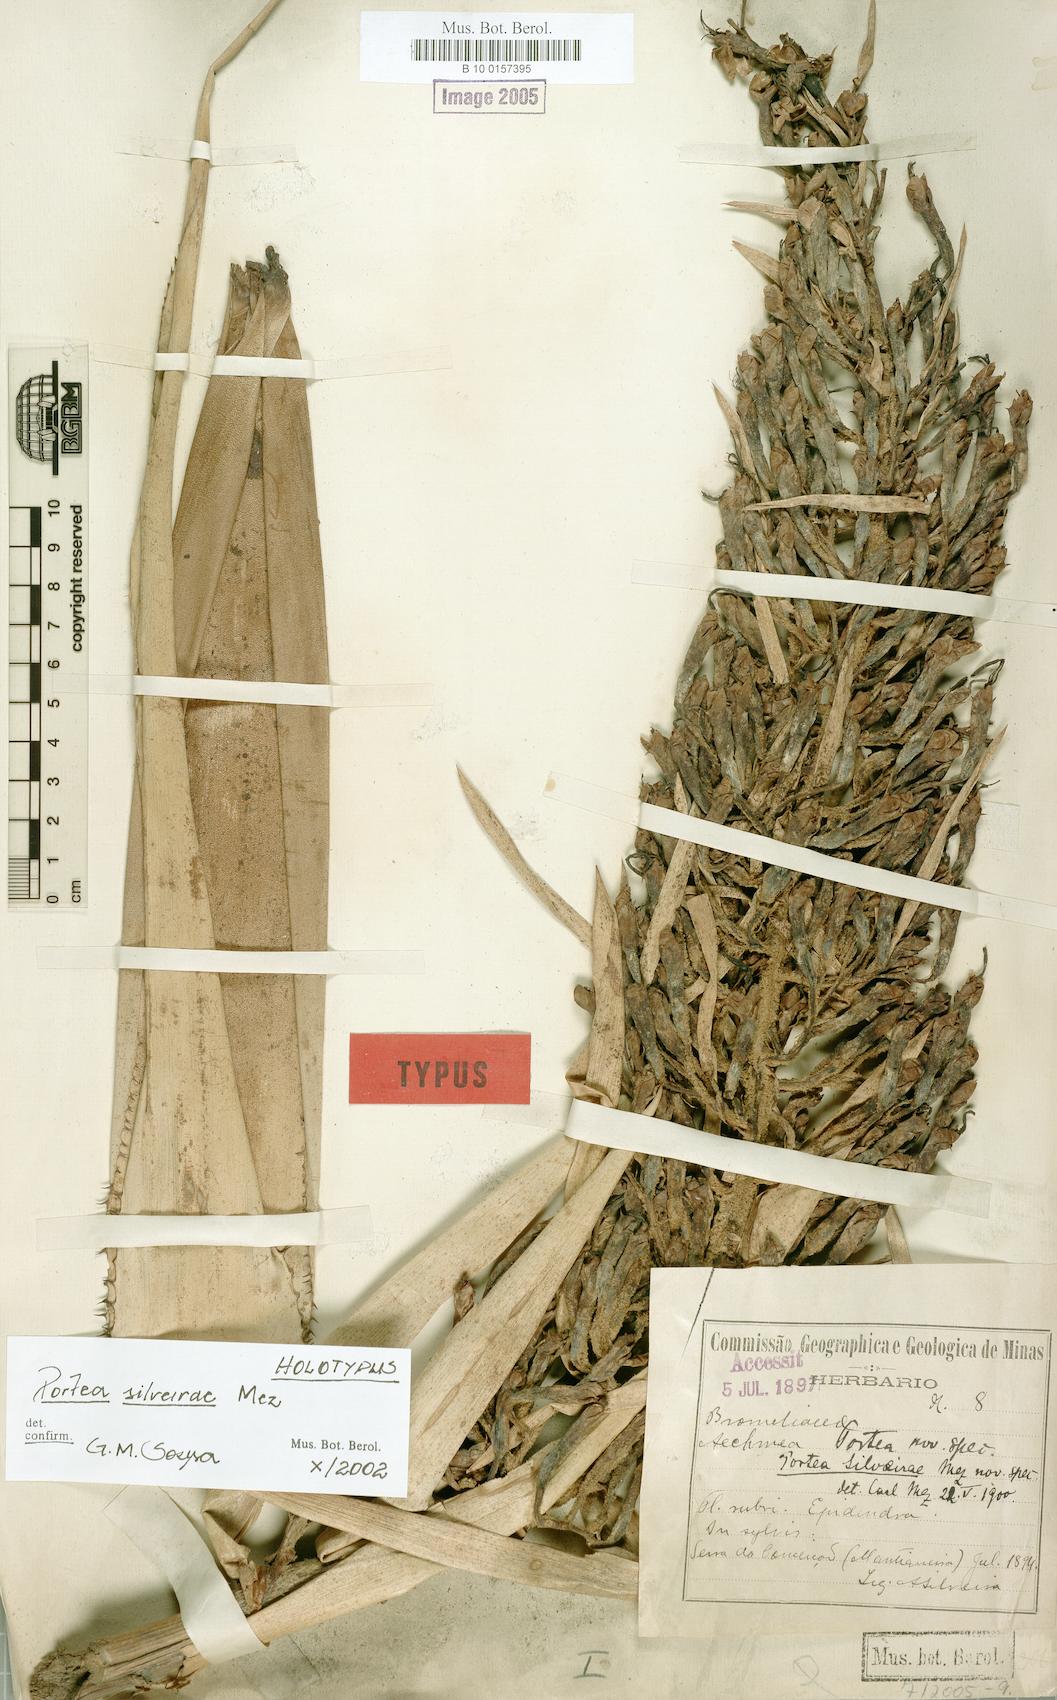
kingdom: Plantae
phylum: Tracheophyta
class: Liliopsida
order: Poales
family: Bromeliaceae
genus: Portea
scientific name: Portea silveirae
